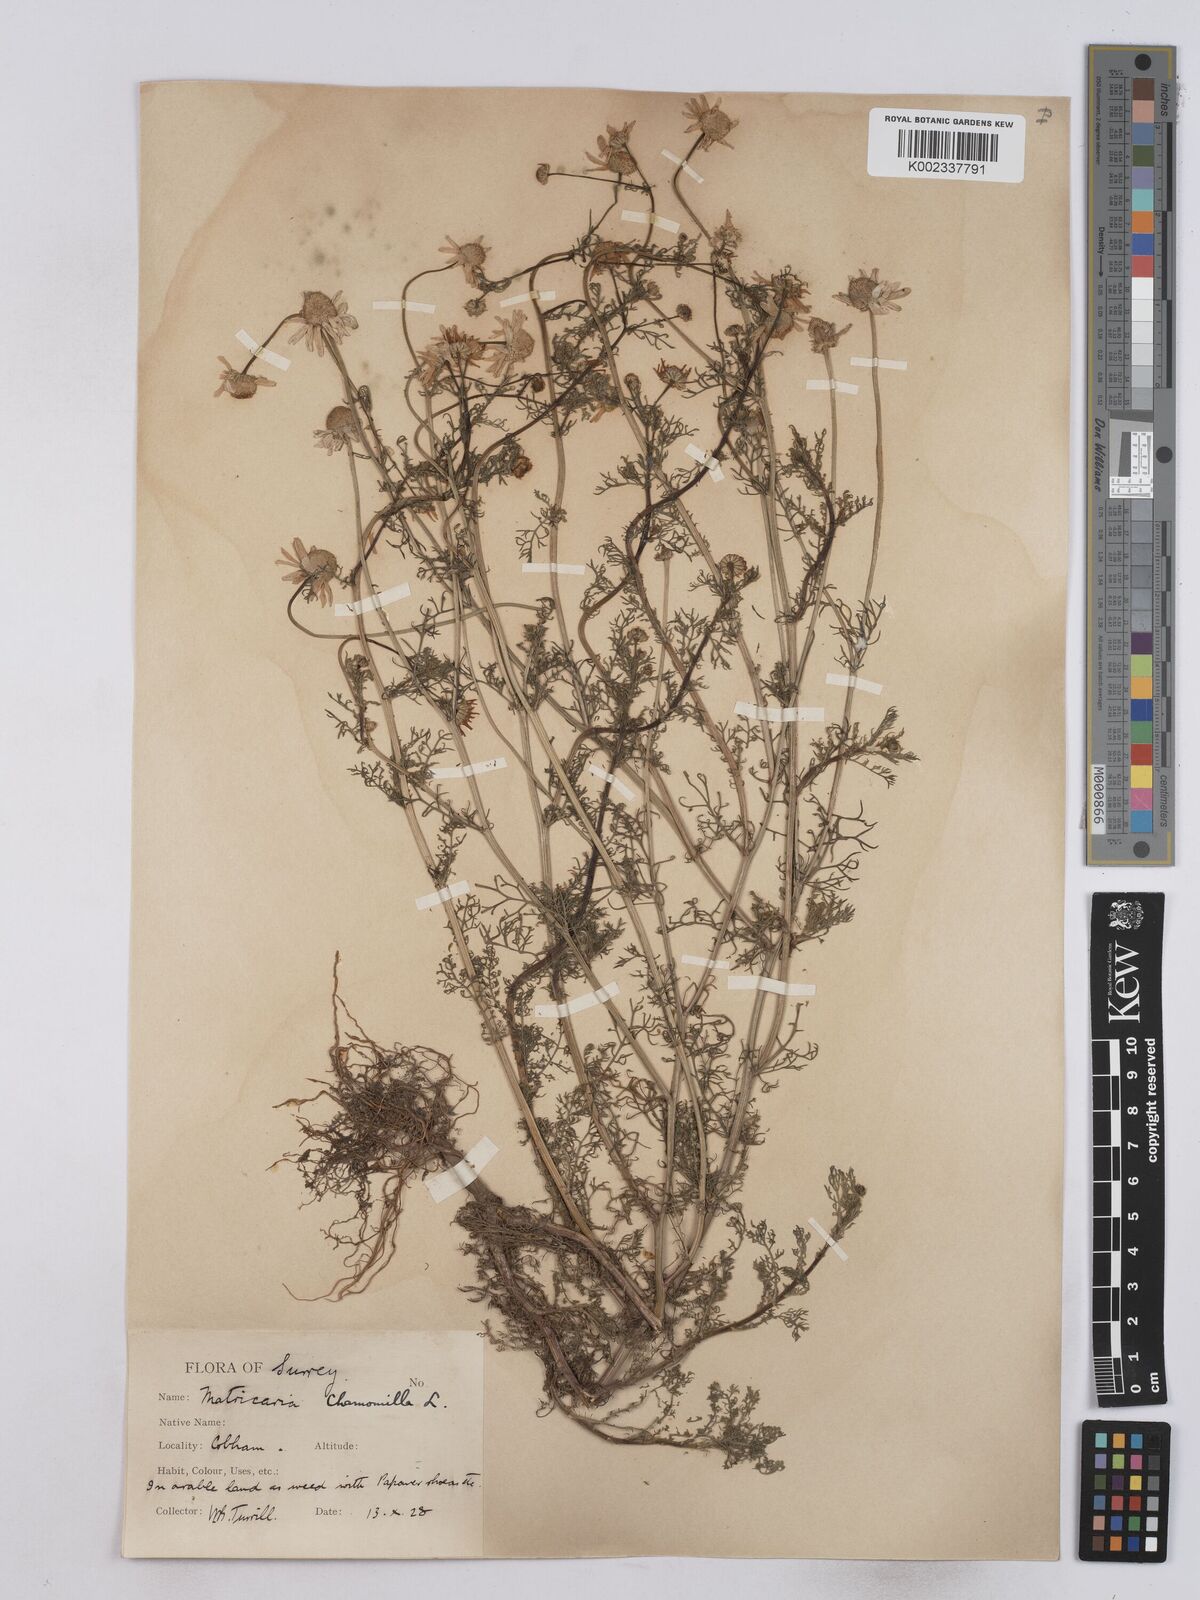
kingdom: Plantae
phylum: Tracheophyta
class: Magnoliopsida
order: Asterales
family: Asteraceae
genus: Matricaria
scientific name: Matricaria chamomilla
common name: Scented mayweed
